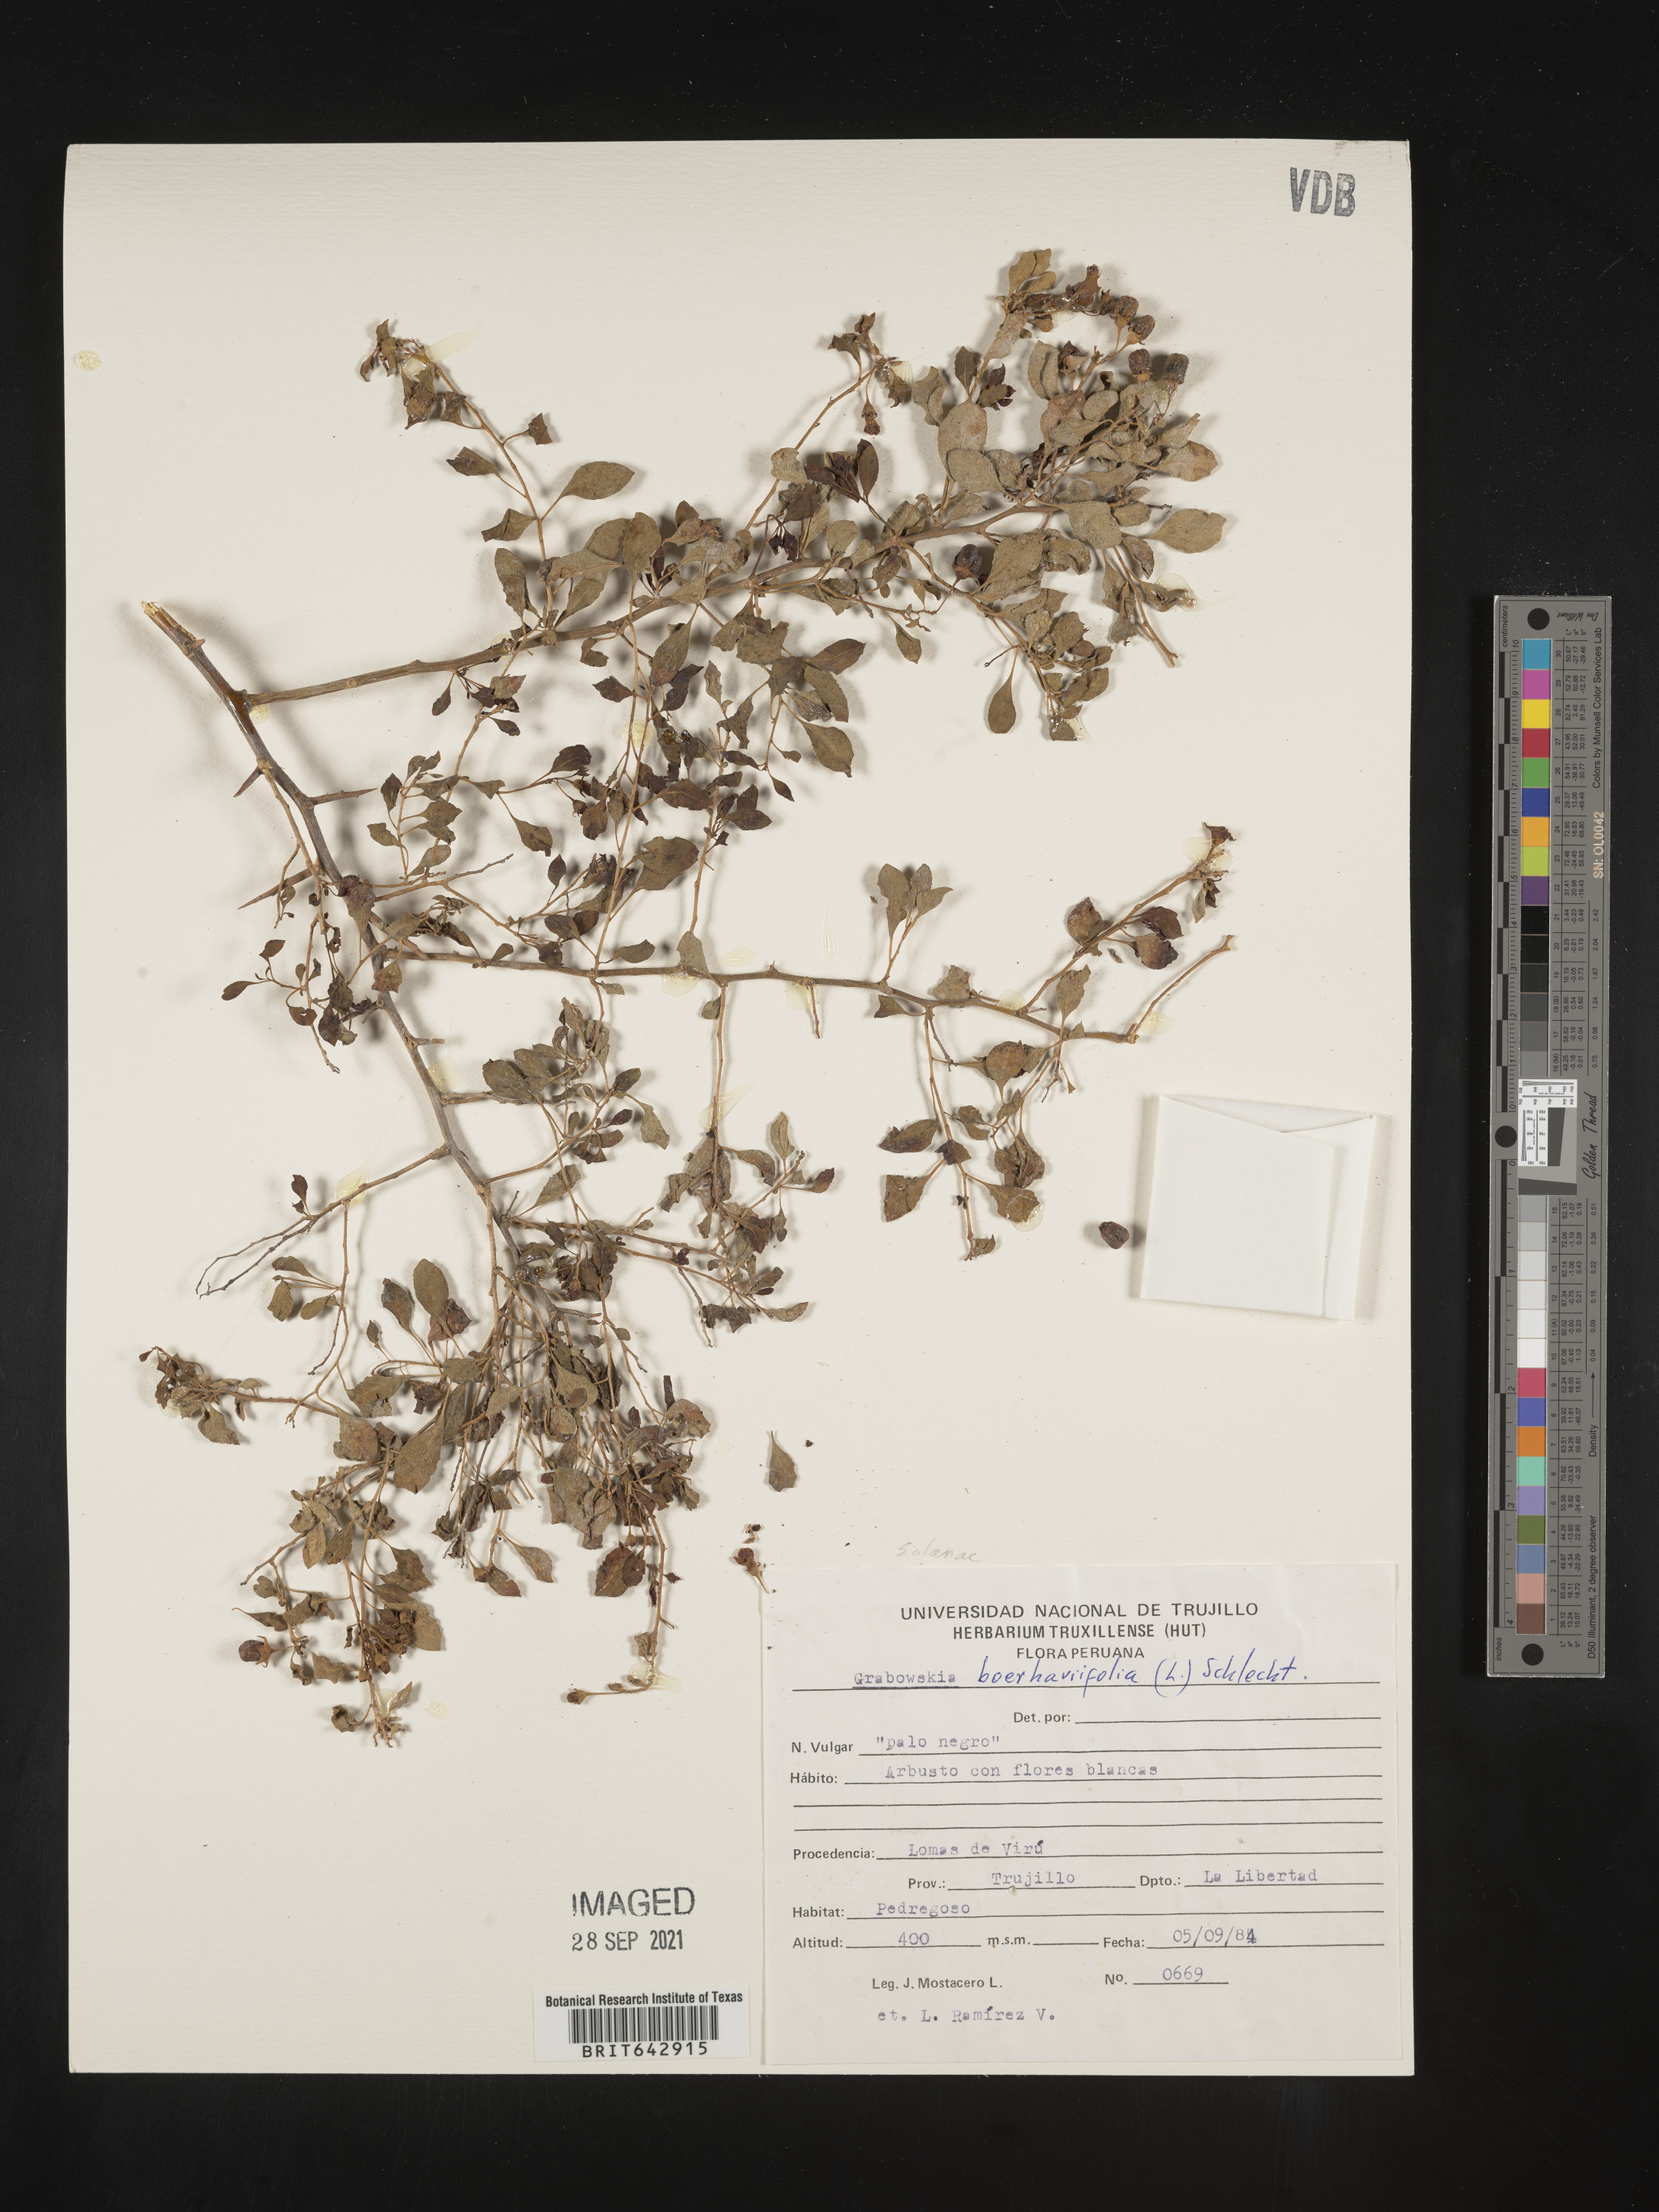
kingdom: Plantae
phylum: Tracheophyta
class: Magnoliopsida
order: Solanales
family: Solanaceae
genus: Lycium
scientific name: Lycium
